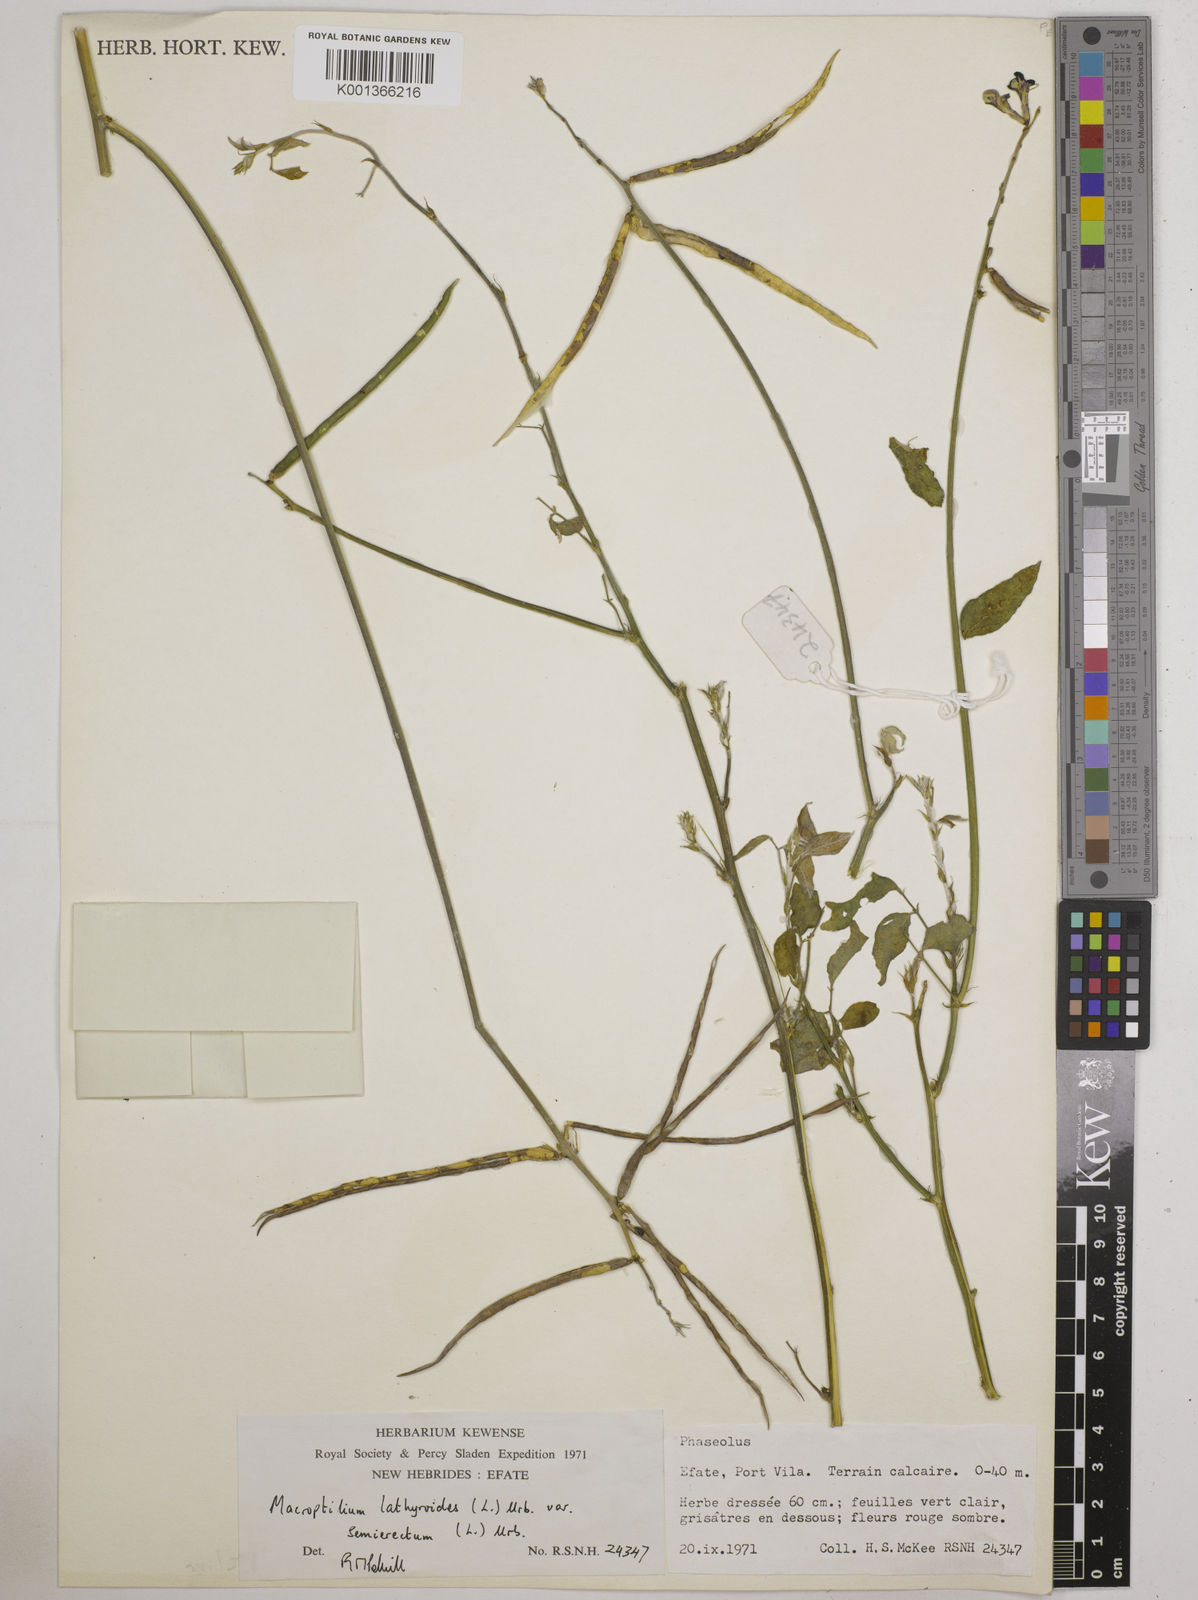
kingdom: Plantae
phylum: Tracheophyta
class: Magnoliopsida
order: Fabales
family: Fabaceae
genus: Macroptilium
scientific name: Macroptilium lathyroides
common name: Wild bushbean
